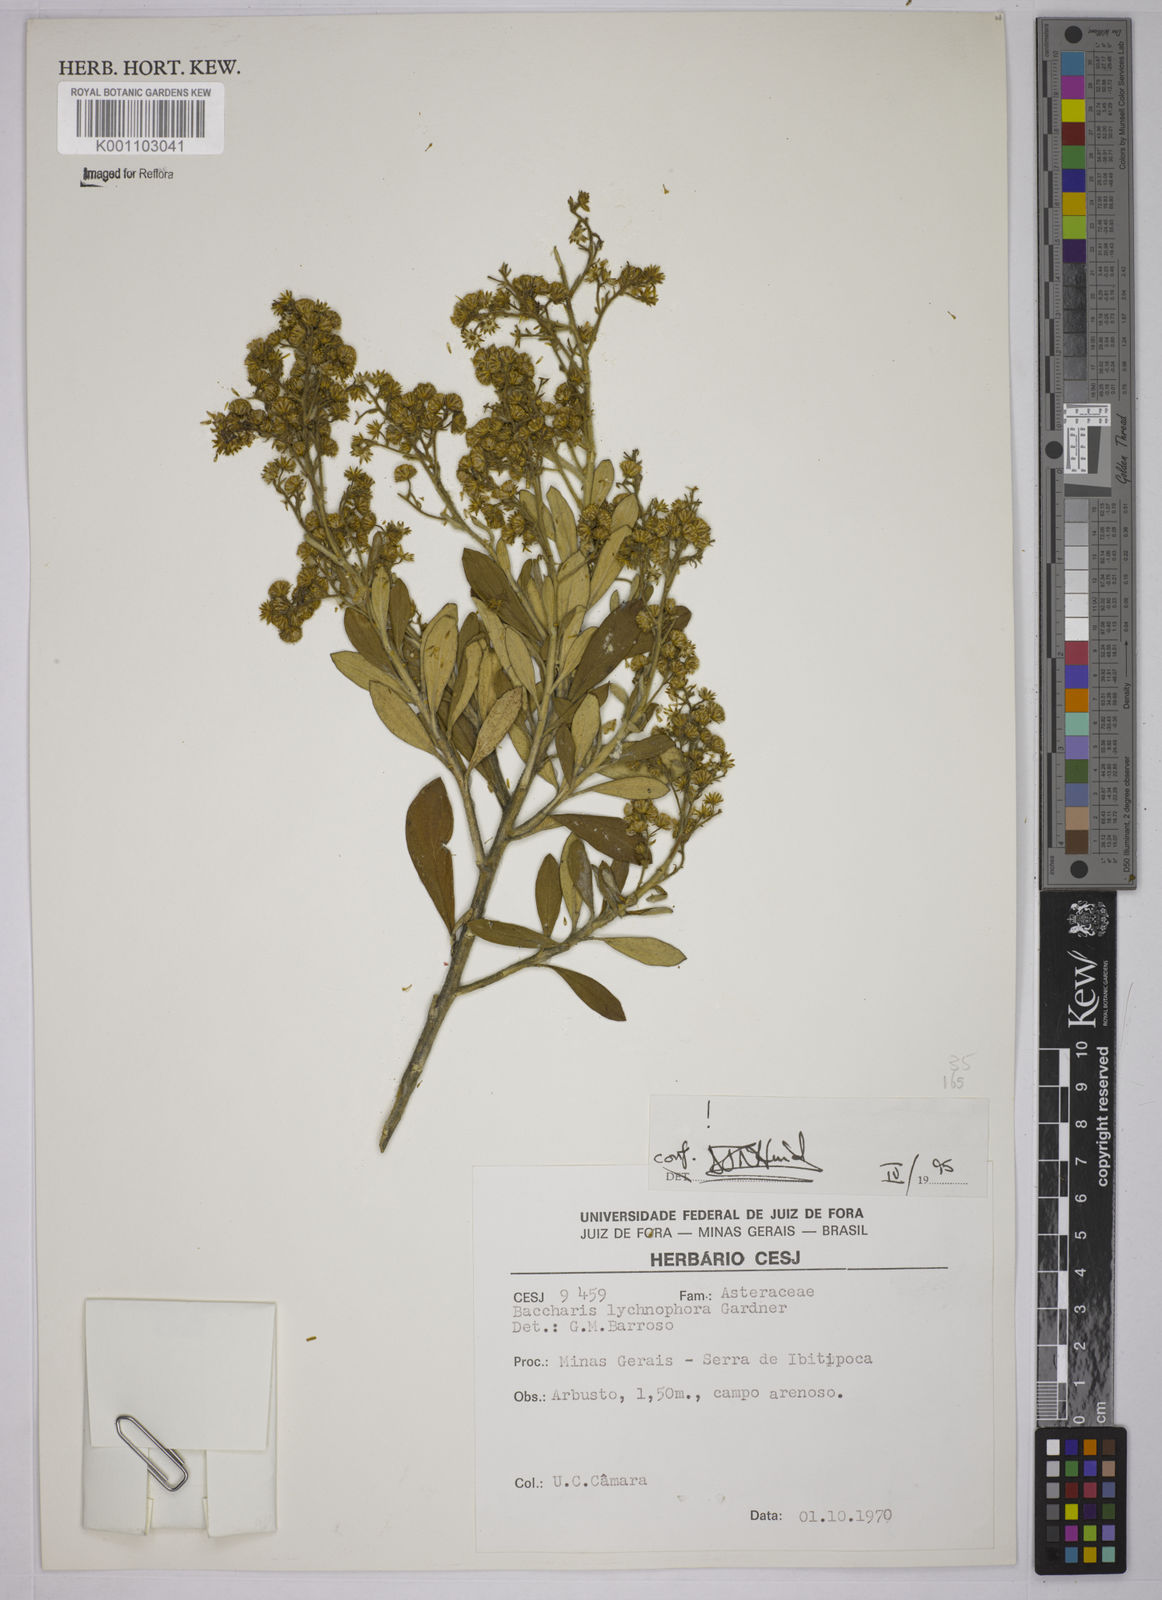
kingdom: Plantae
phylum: Tracheophyta
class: Magnoliopsida
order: Asterales
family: Asteraceae
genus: Baccharis
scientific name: Baccharis lychnophora
